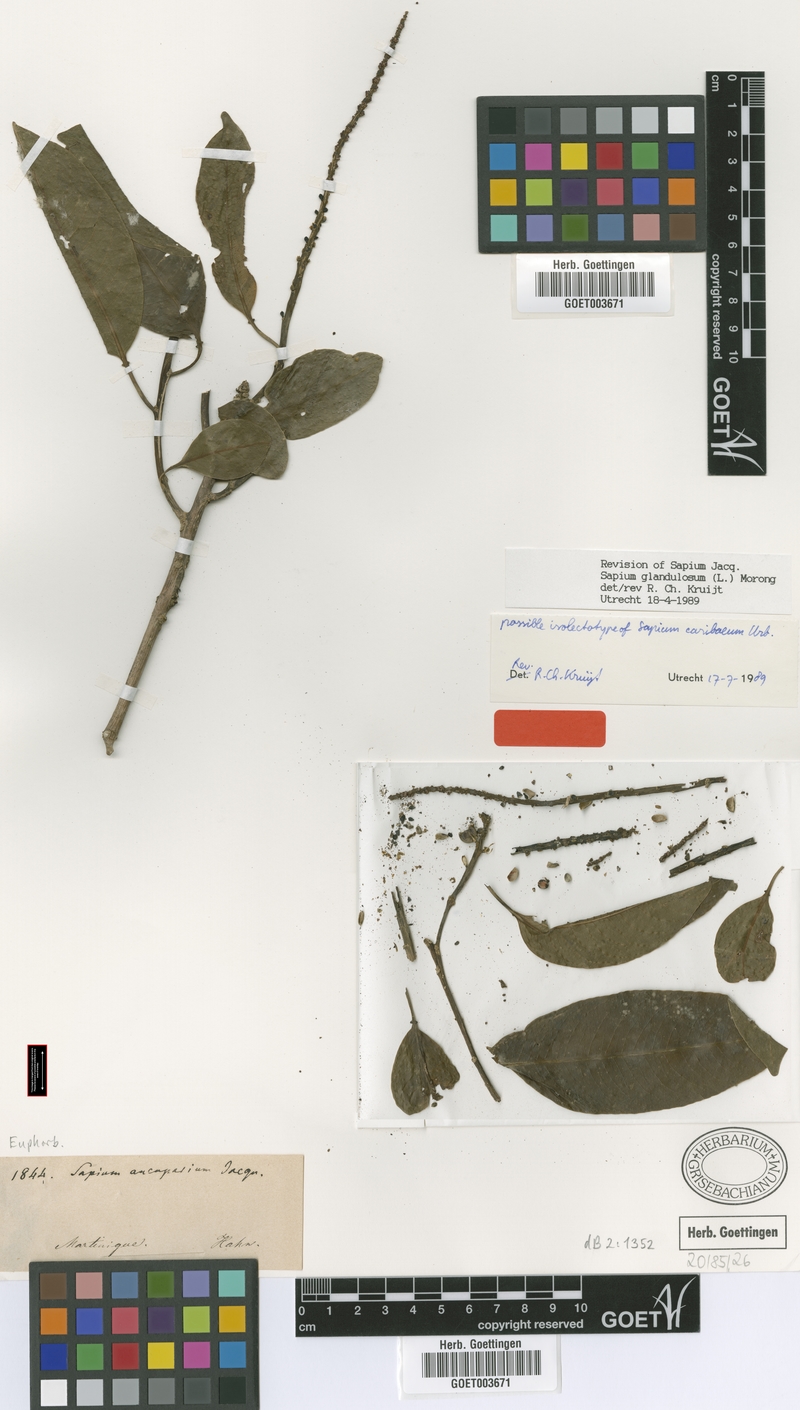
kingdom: Plantae
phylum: Tracheophyta
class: Magnoliopsida
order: Malpighiales
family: Euphorbiaceae
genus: Sapium
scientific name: Sapium glandulosum
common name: Milktree
